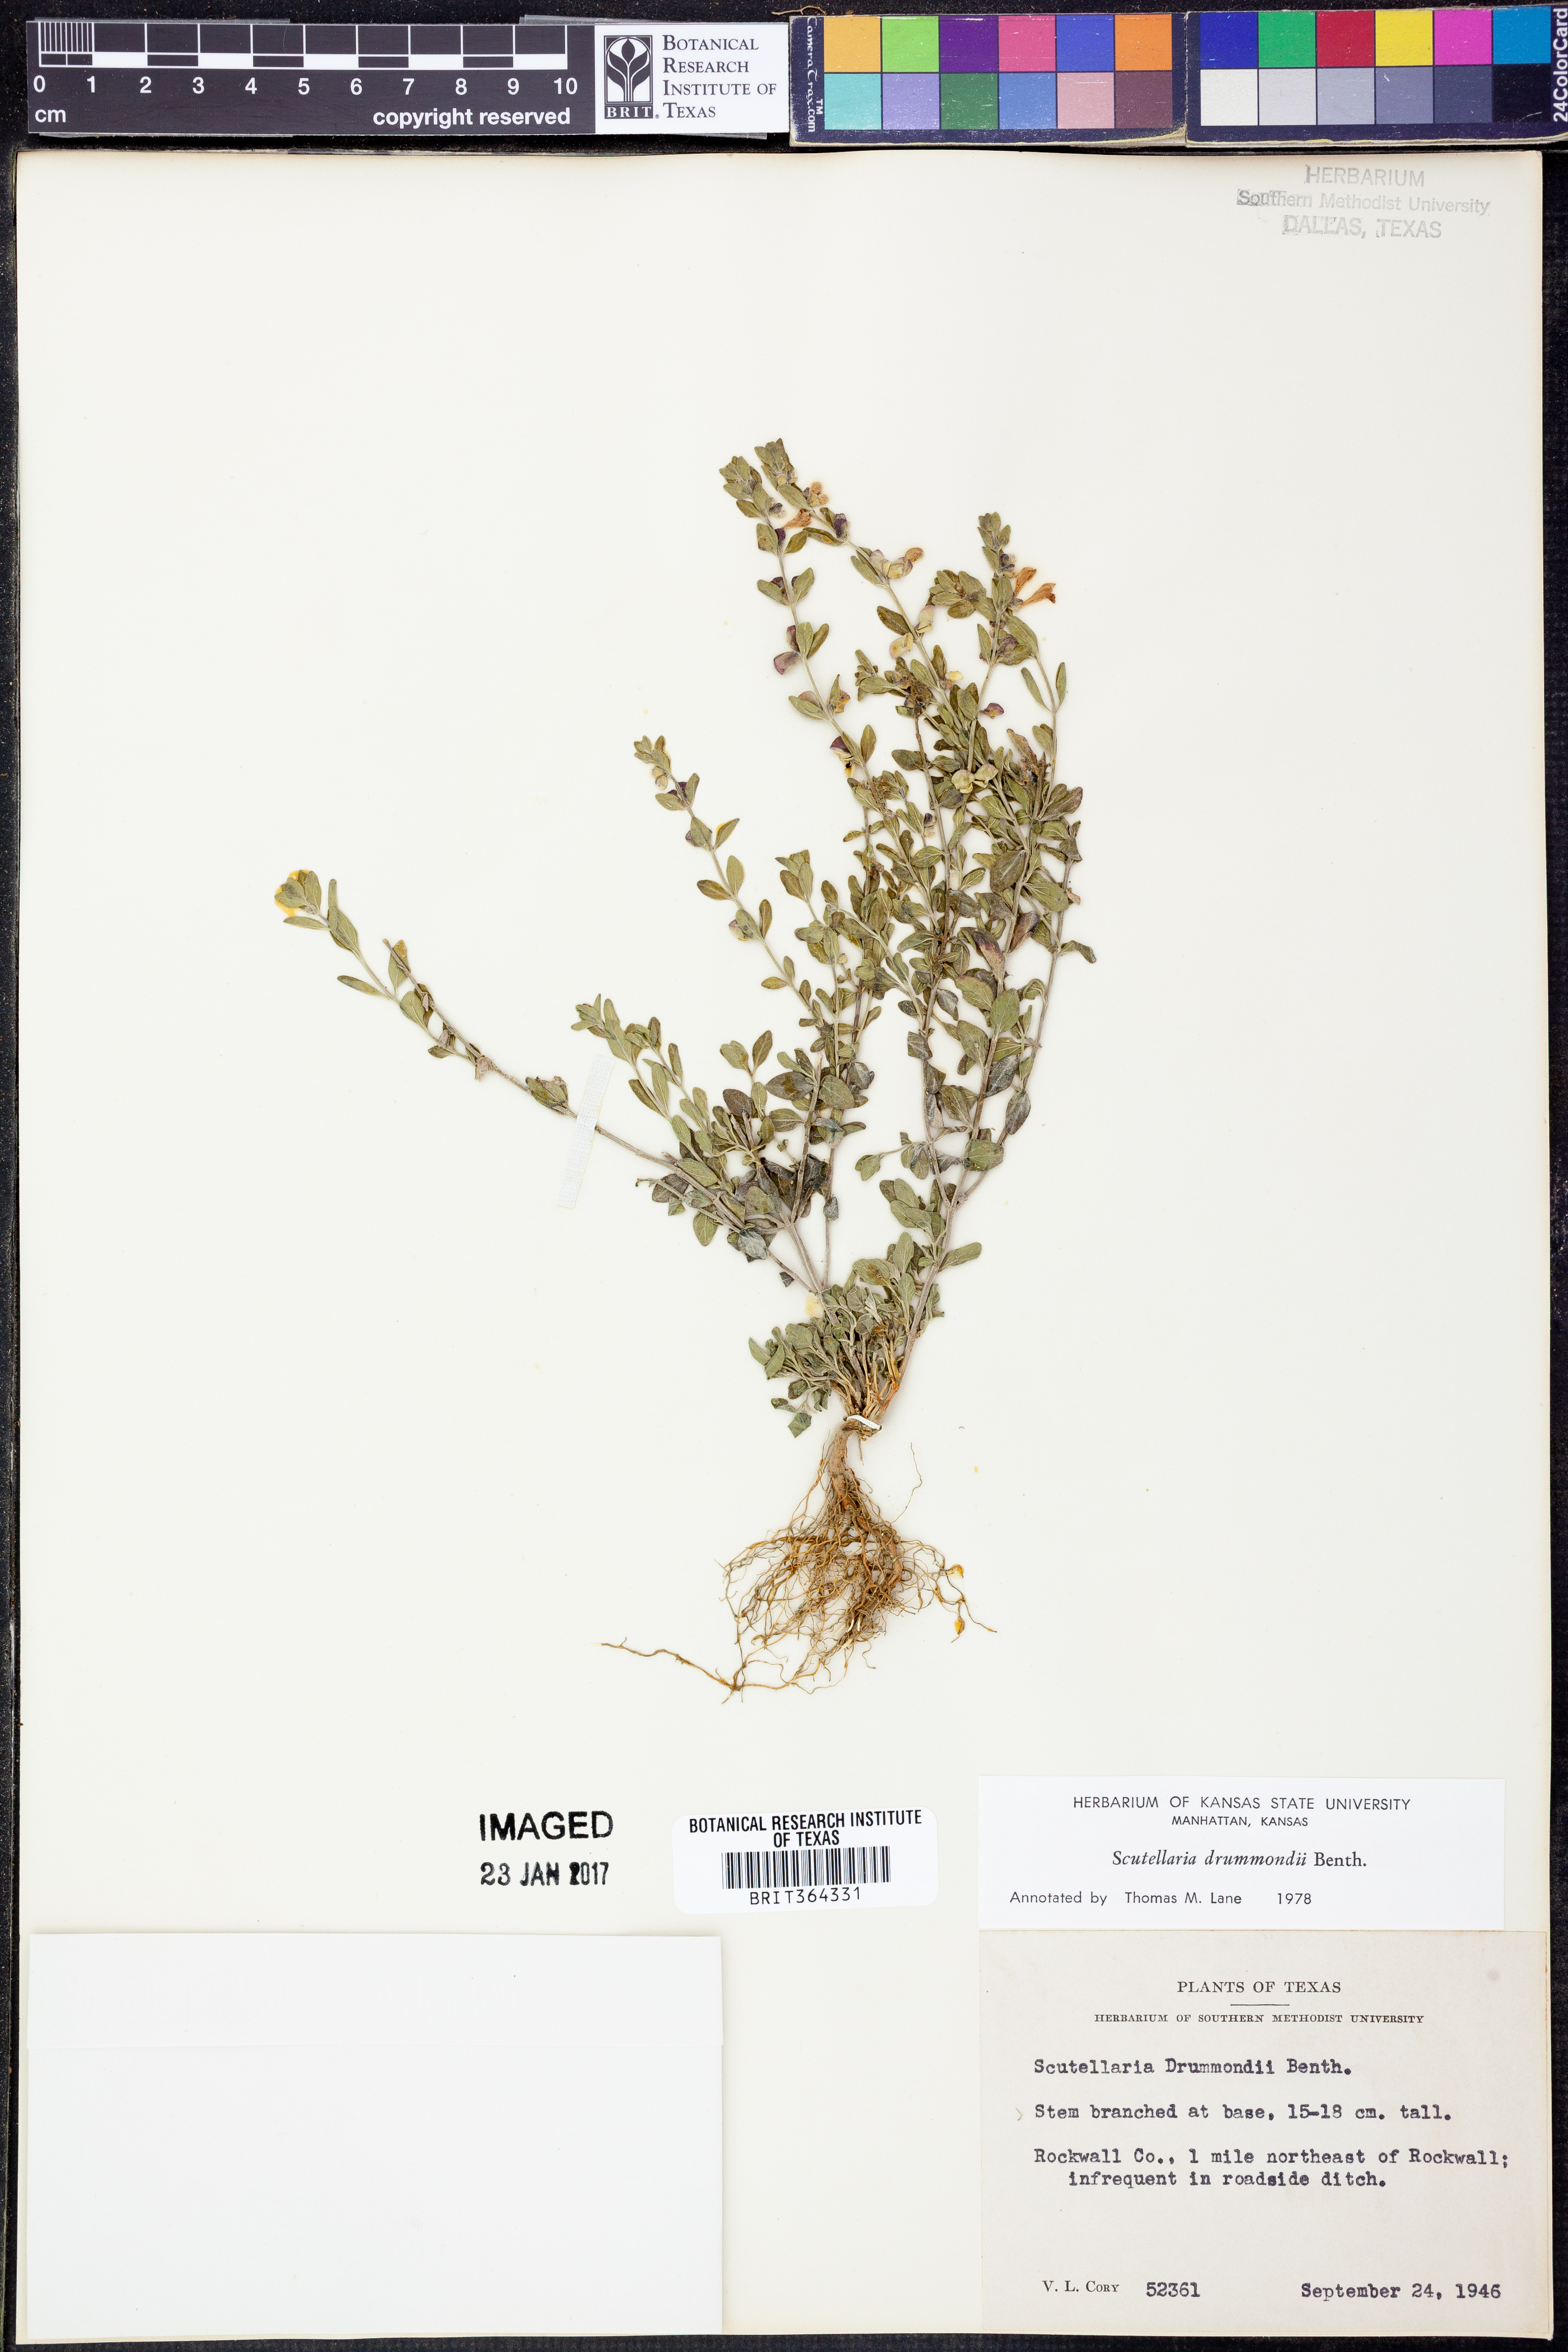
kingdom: Plantae
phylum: Tracheophyta
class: Magnoliopsida
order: Lamiales
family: Lamiaceae
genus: Scutellaria
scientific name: Scutellaria drummondii
